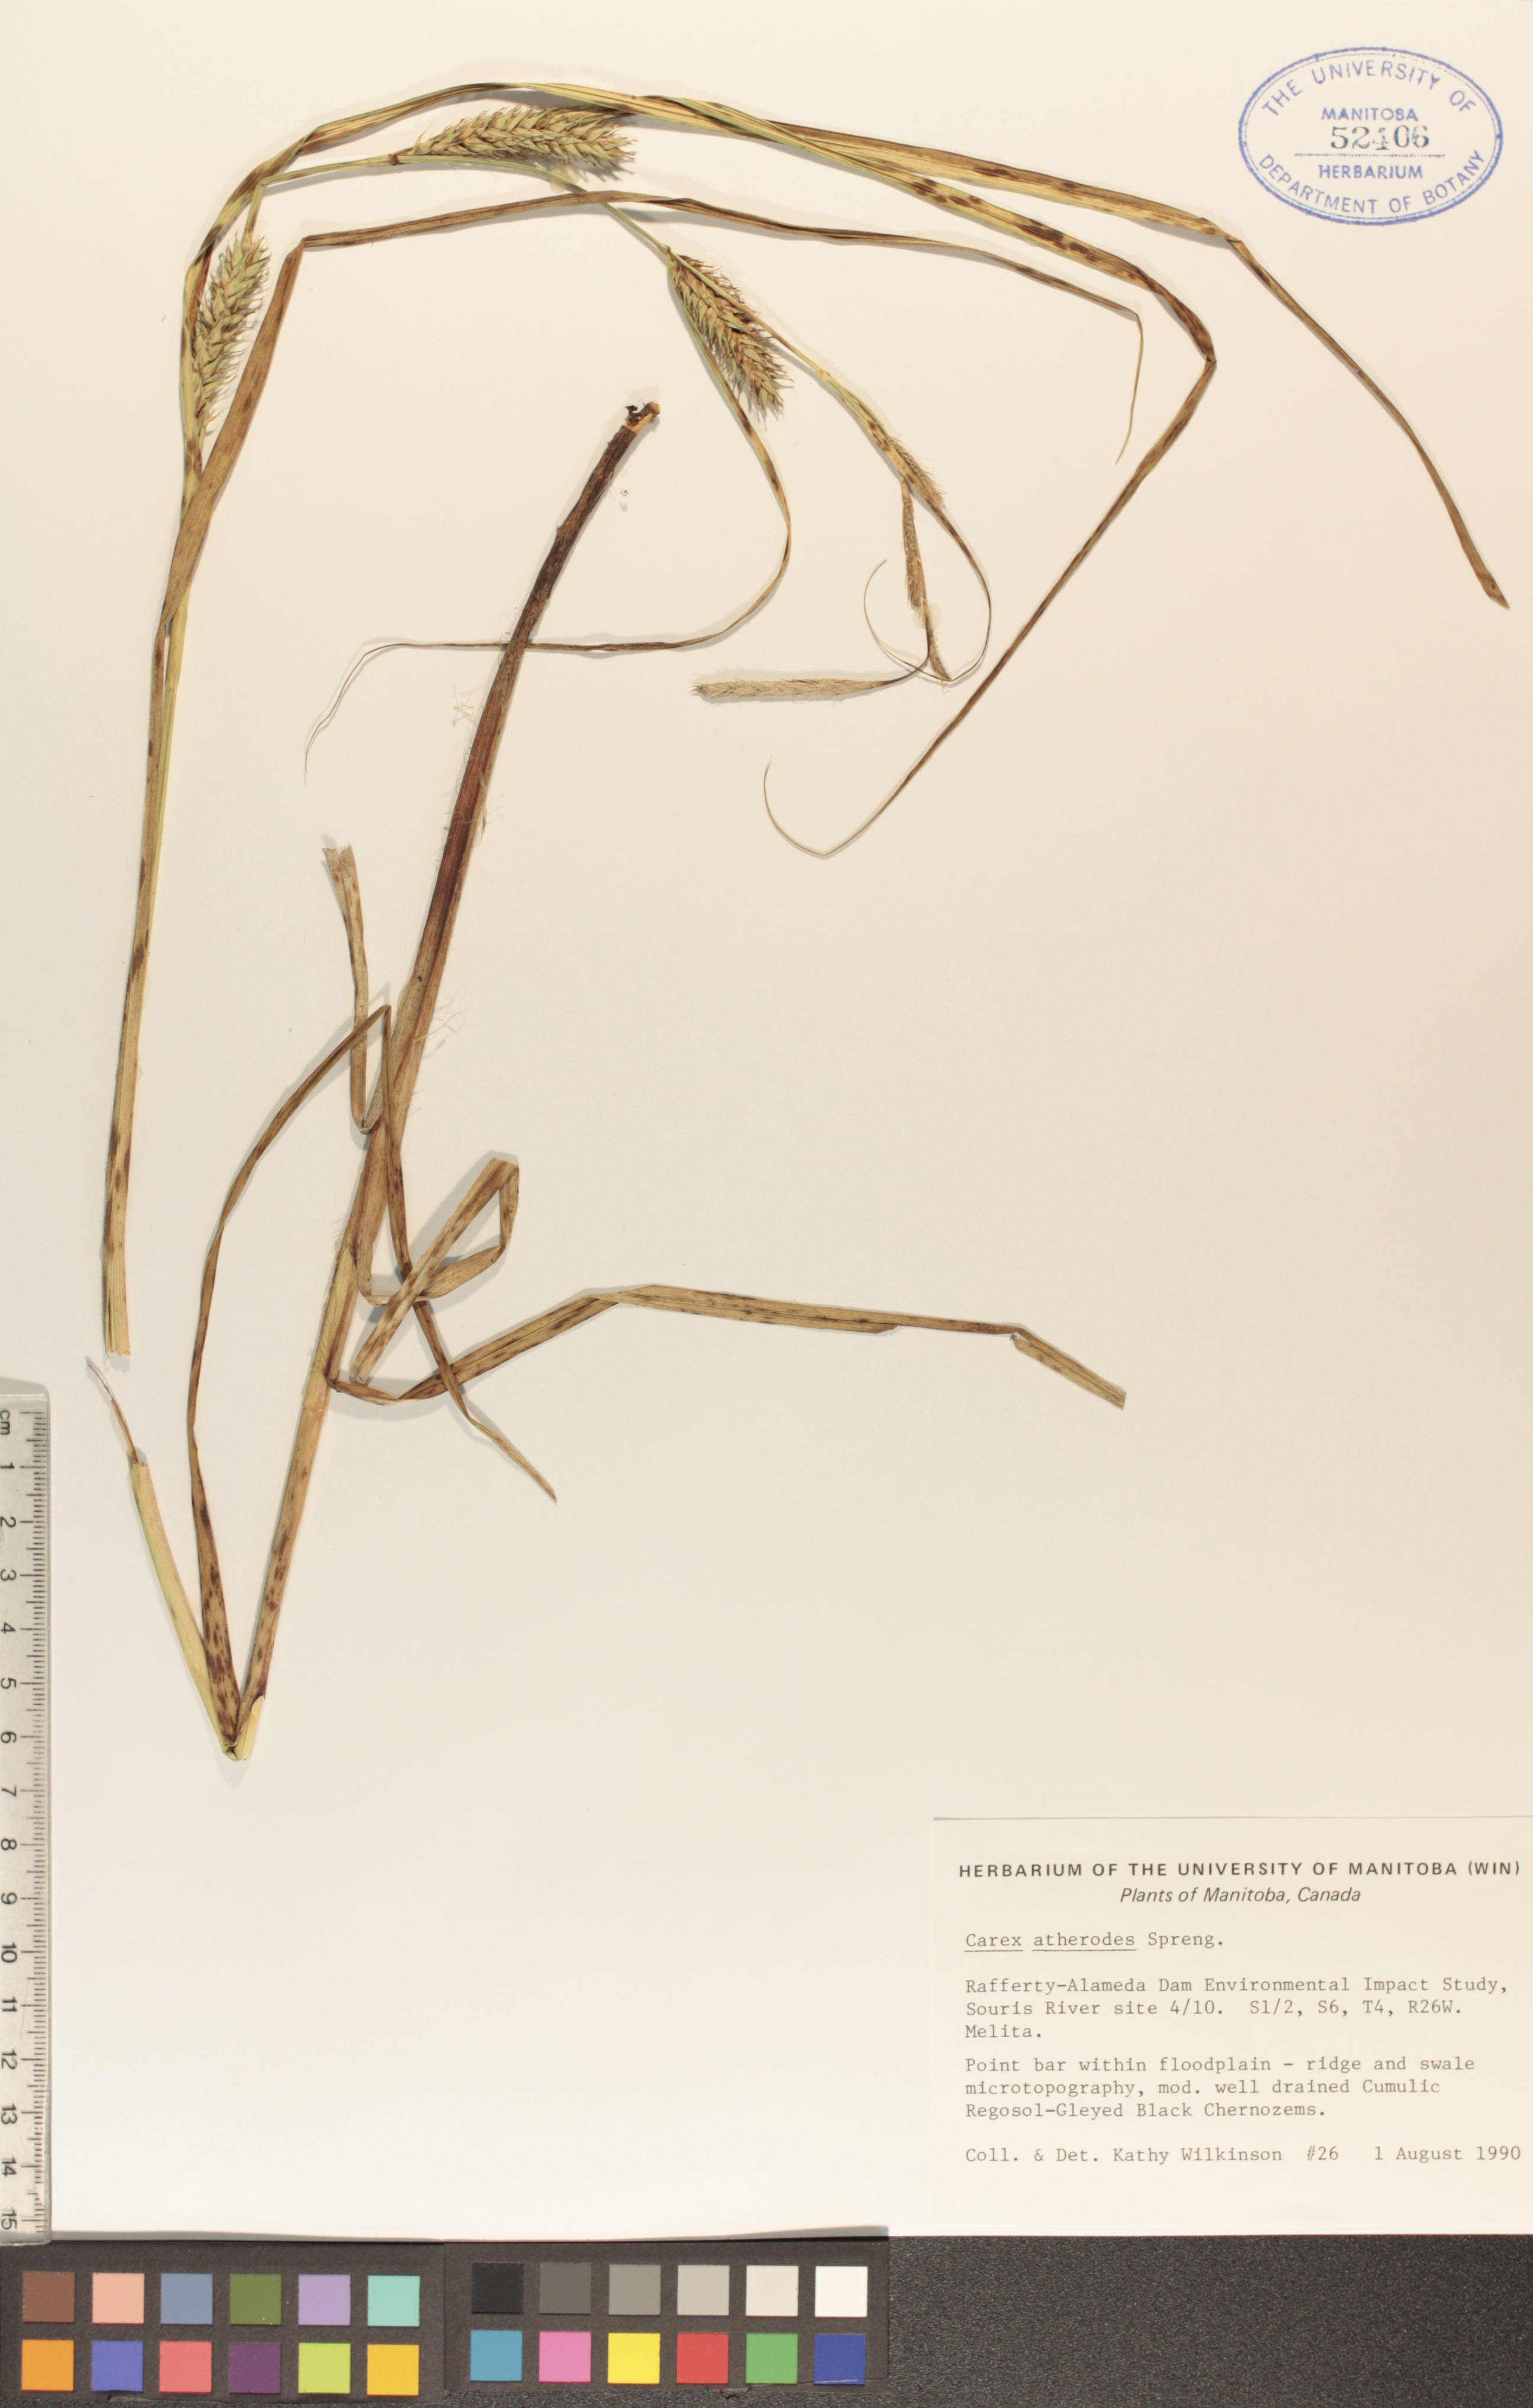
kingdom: Plantae
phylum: Tracheophyta
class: Liliopsida
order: Poales
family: Cyperaceae
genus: Carex
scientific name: Carex atherodes
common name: Wheat sedge
